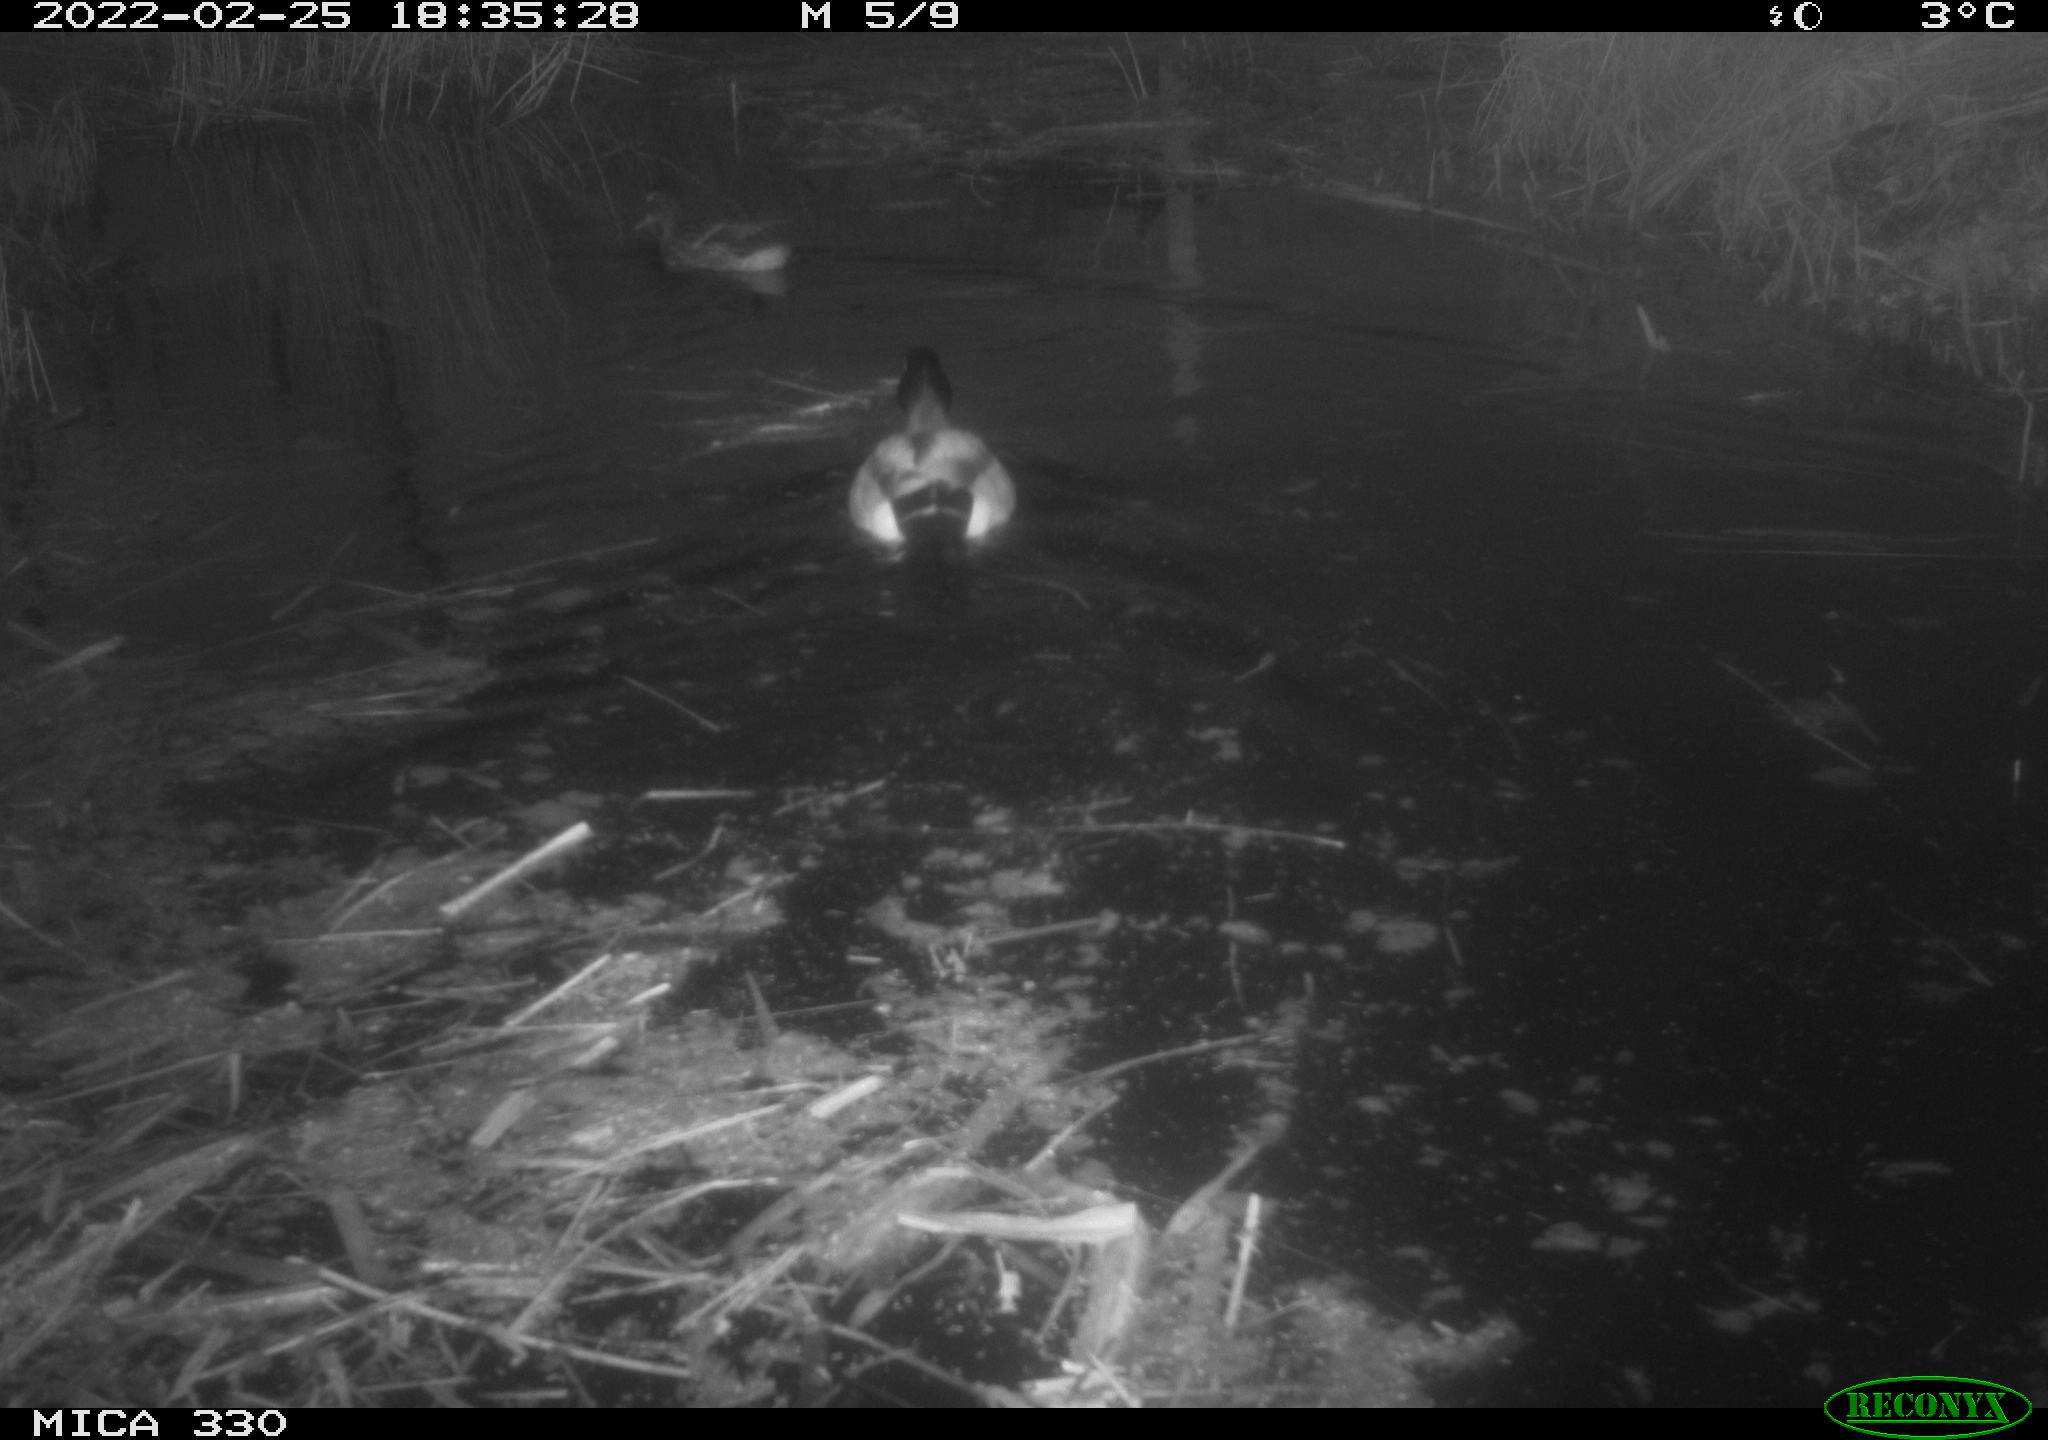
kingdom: Animalia
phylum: Chordata
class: Aves
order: Anseriformes
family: Anatidae
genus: Anas
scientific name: Anas platyrhynchos
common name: Mallard
